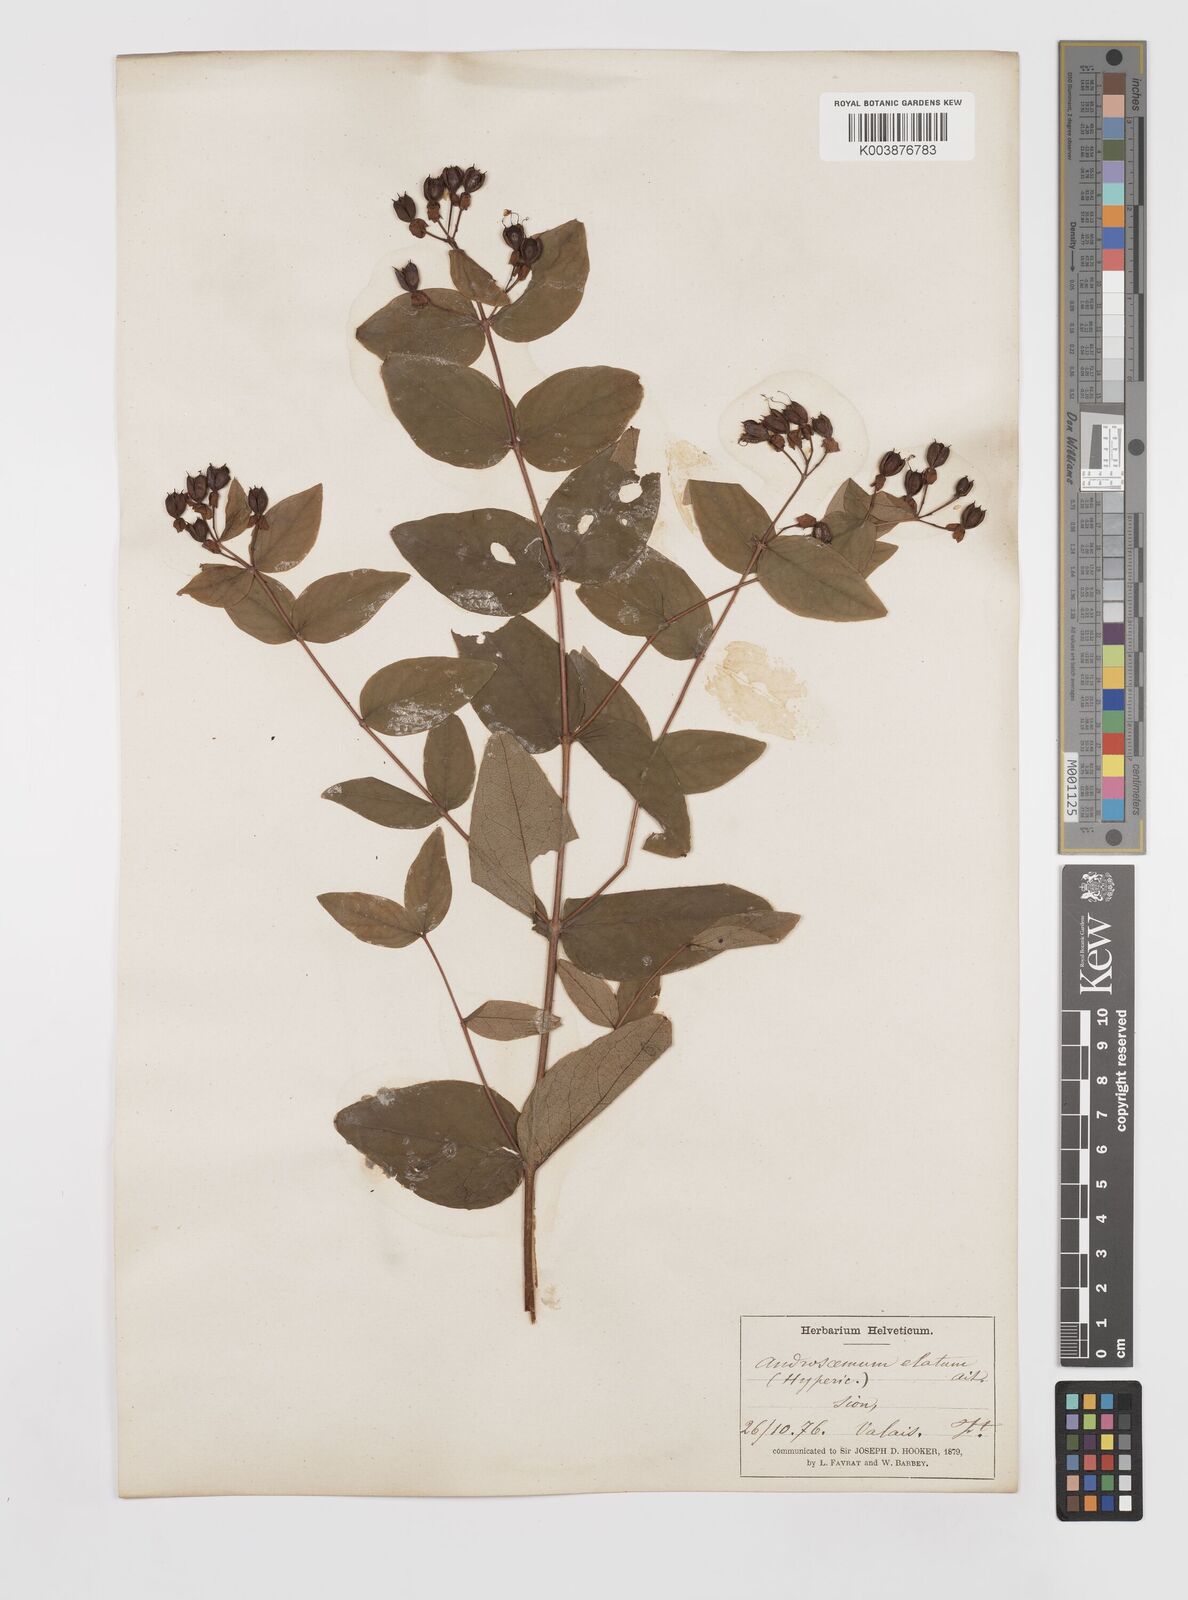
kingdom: Plantae
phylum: Tracheophyta
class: Magnoliopsida
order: Malpighiales
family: Hypericaceae
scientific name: Hypericaceae
